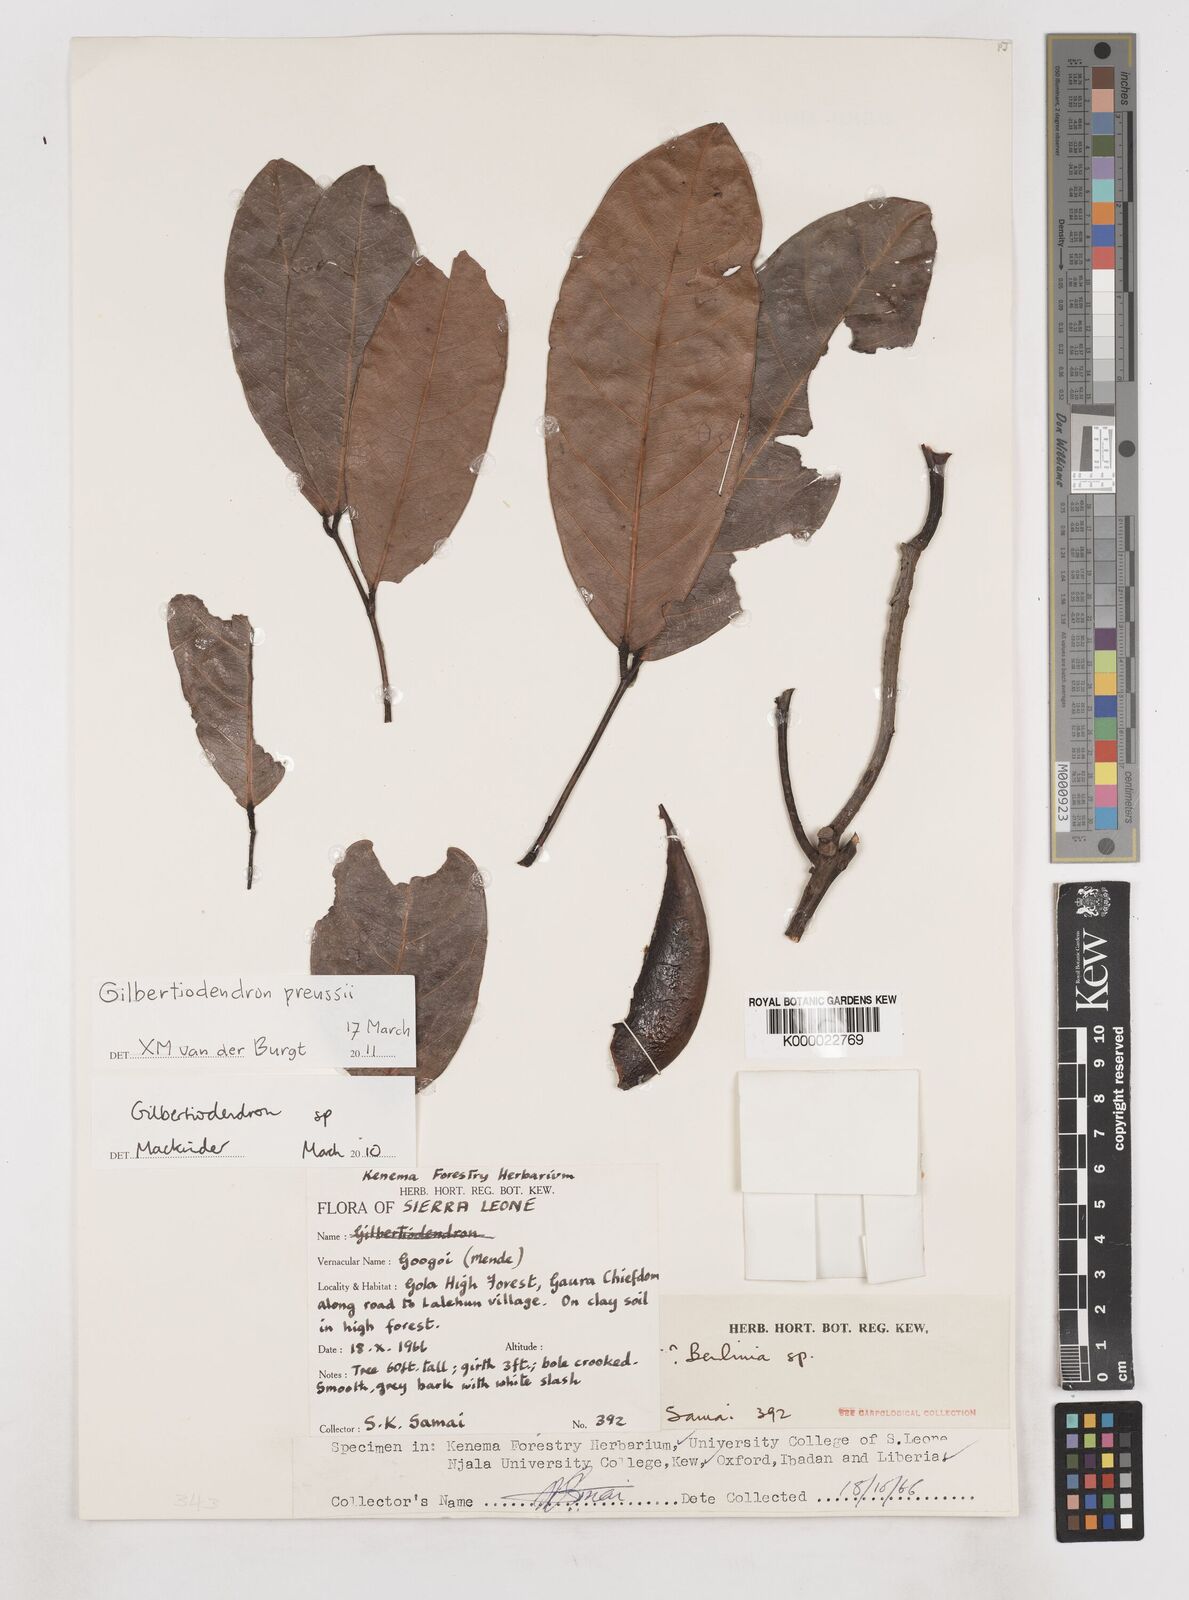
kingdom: Plantae
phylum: Tracheophyta
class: Magnoliopsida
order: Fabales
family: Fabaceae
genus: Berlinia
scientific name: Berlinia
